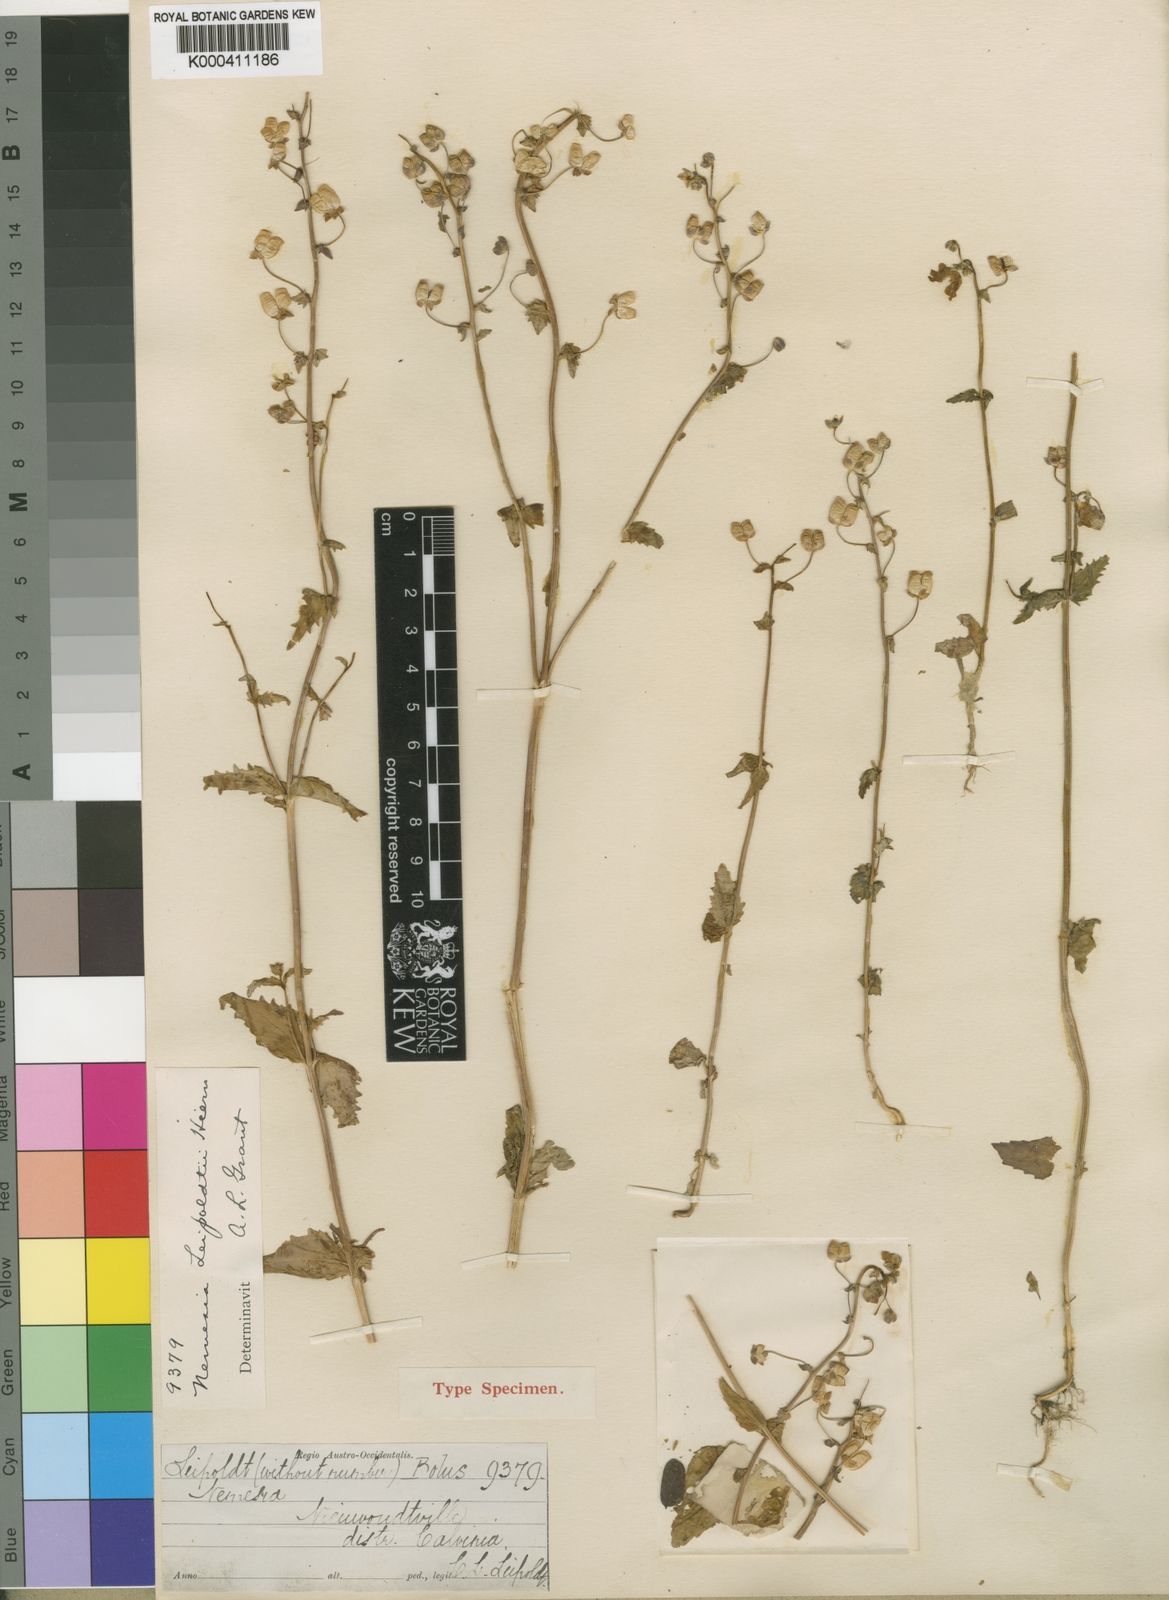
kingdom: Plantae
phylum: Tracheophyta
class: Magnoliopsida
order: Lamiales
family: Scrophulariaceae
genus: Nemesia
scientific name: Nemesia leipoldtii
